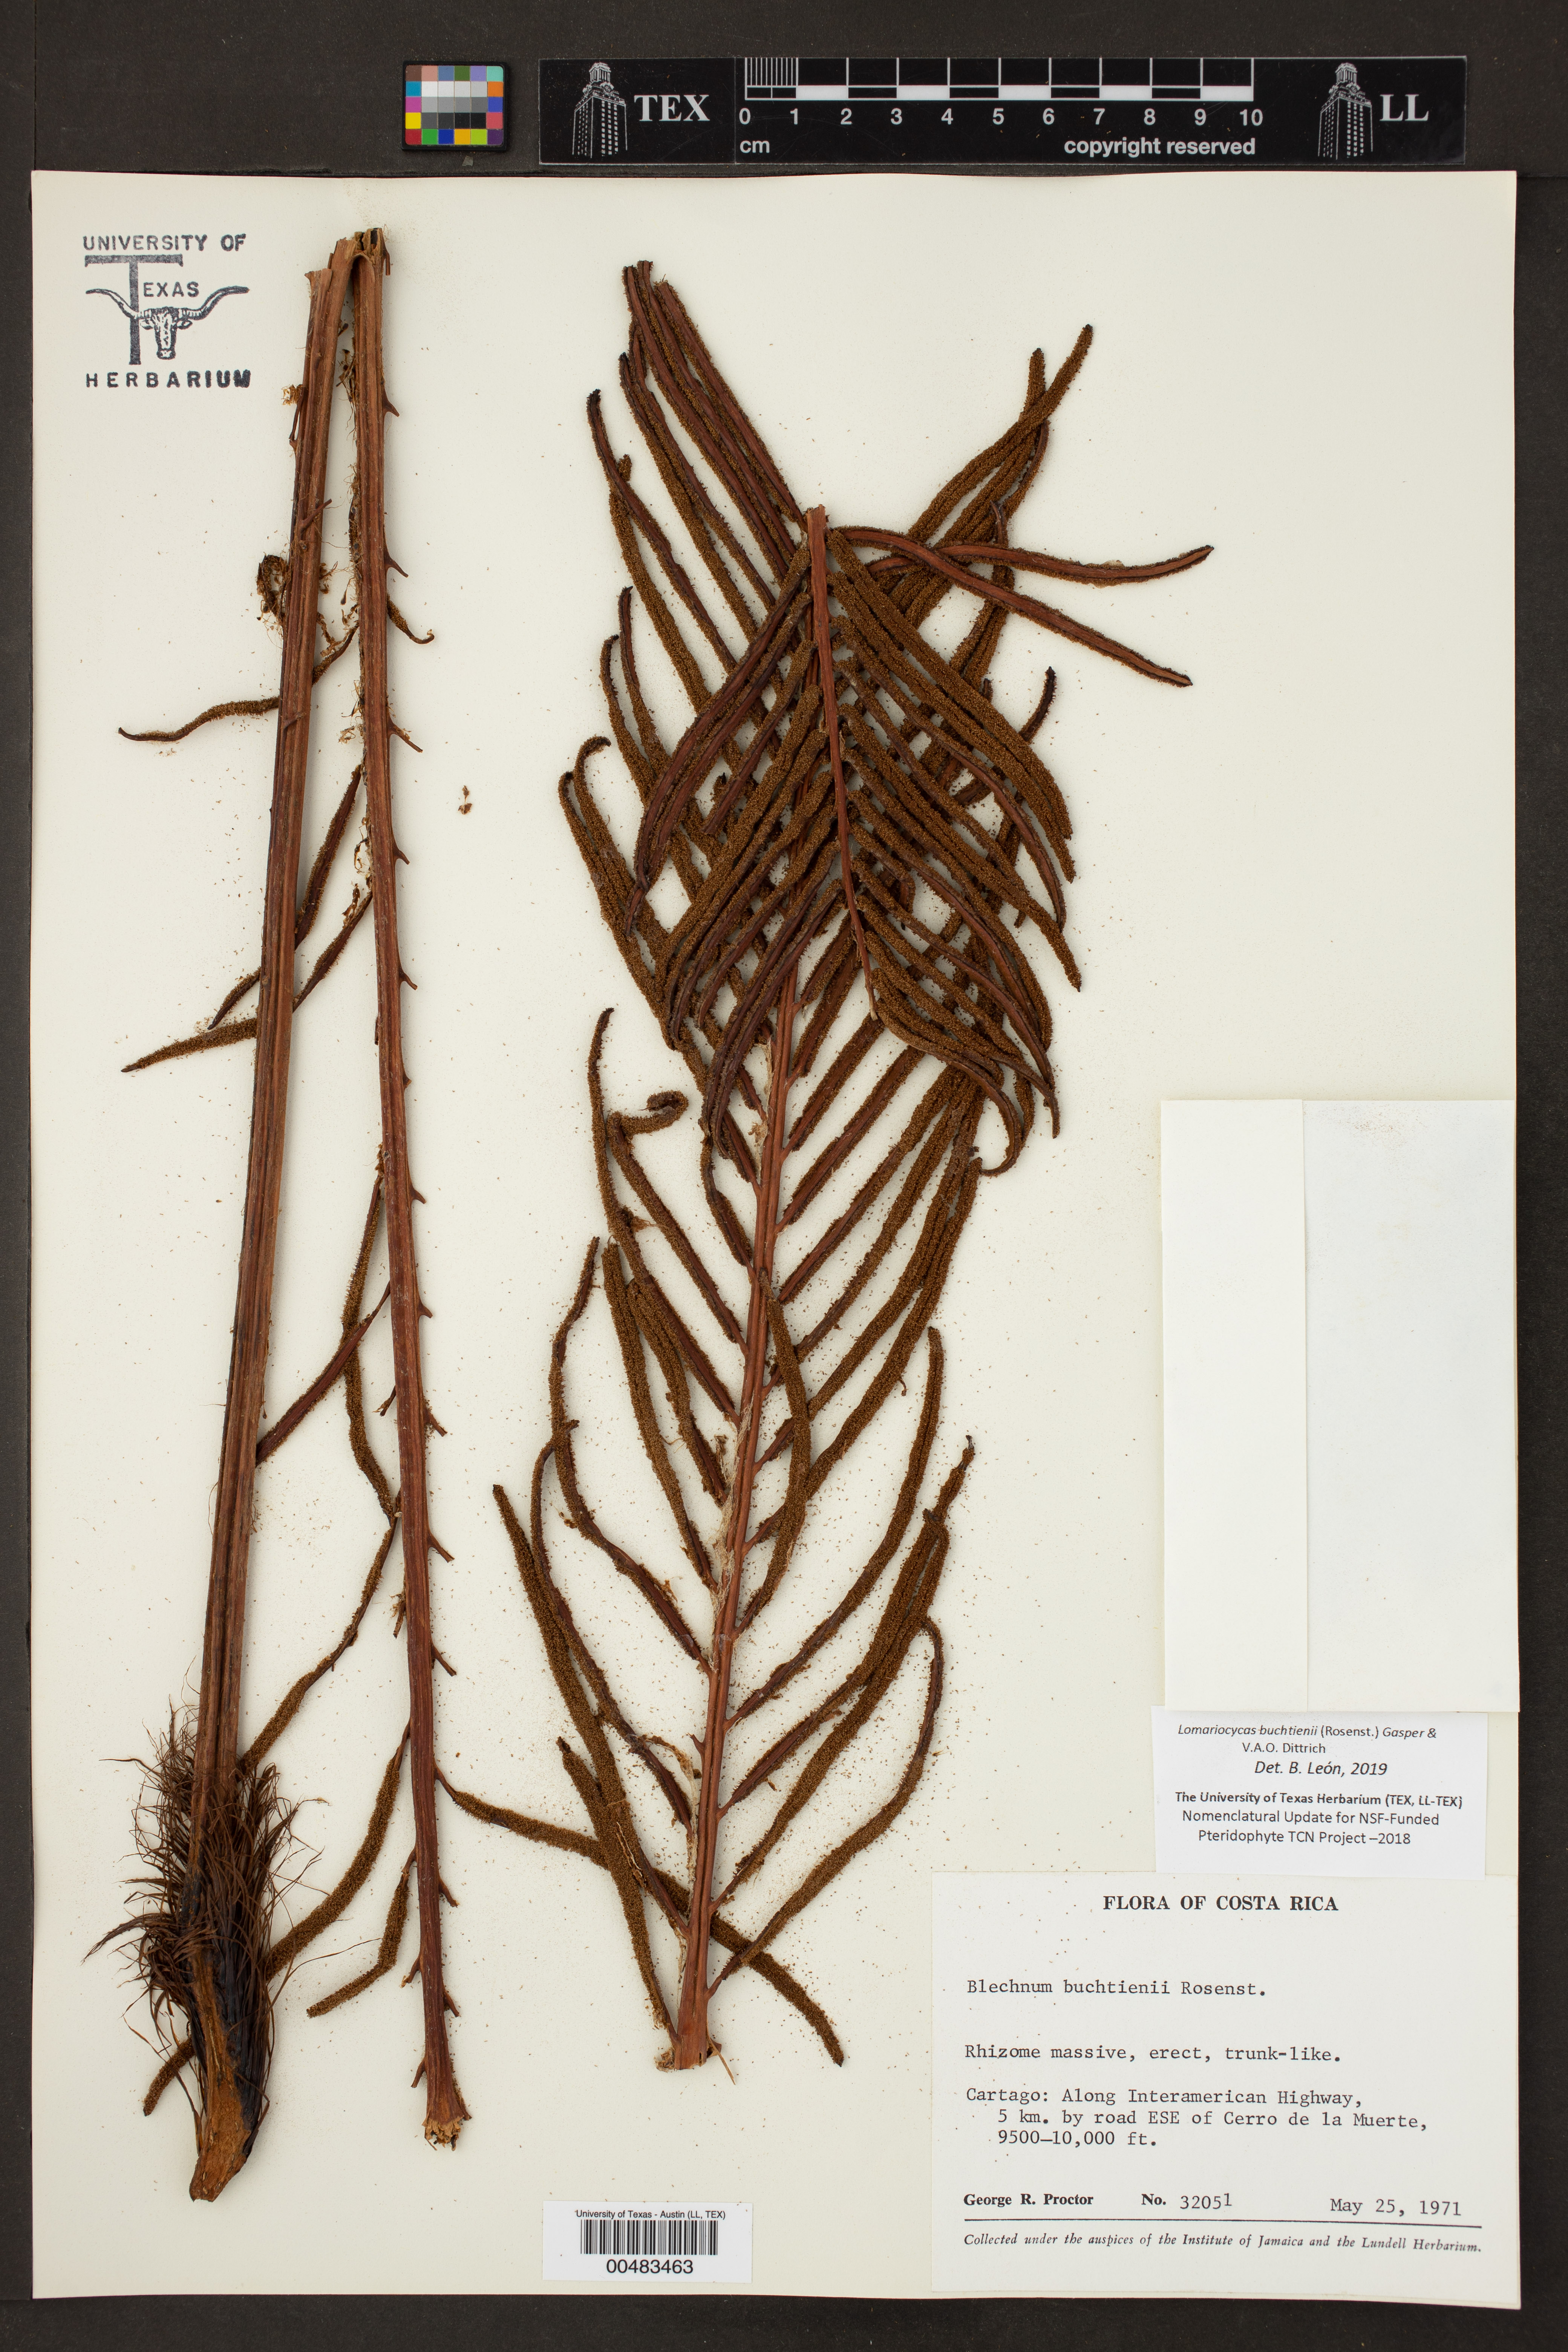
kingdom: Plantae
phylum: Tracheophyta
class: Polypodiopsida
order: Polypodiales
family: Blechnaceae
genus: Lomariocycas
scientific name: Lomariocycas aurata
